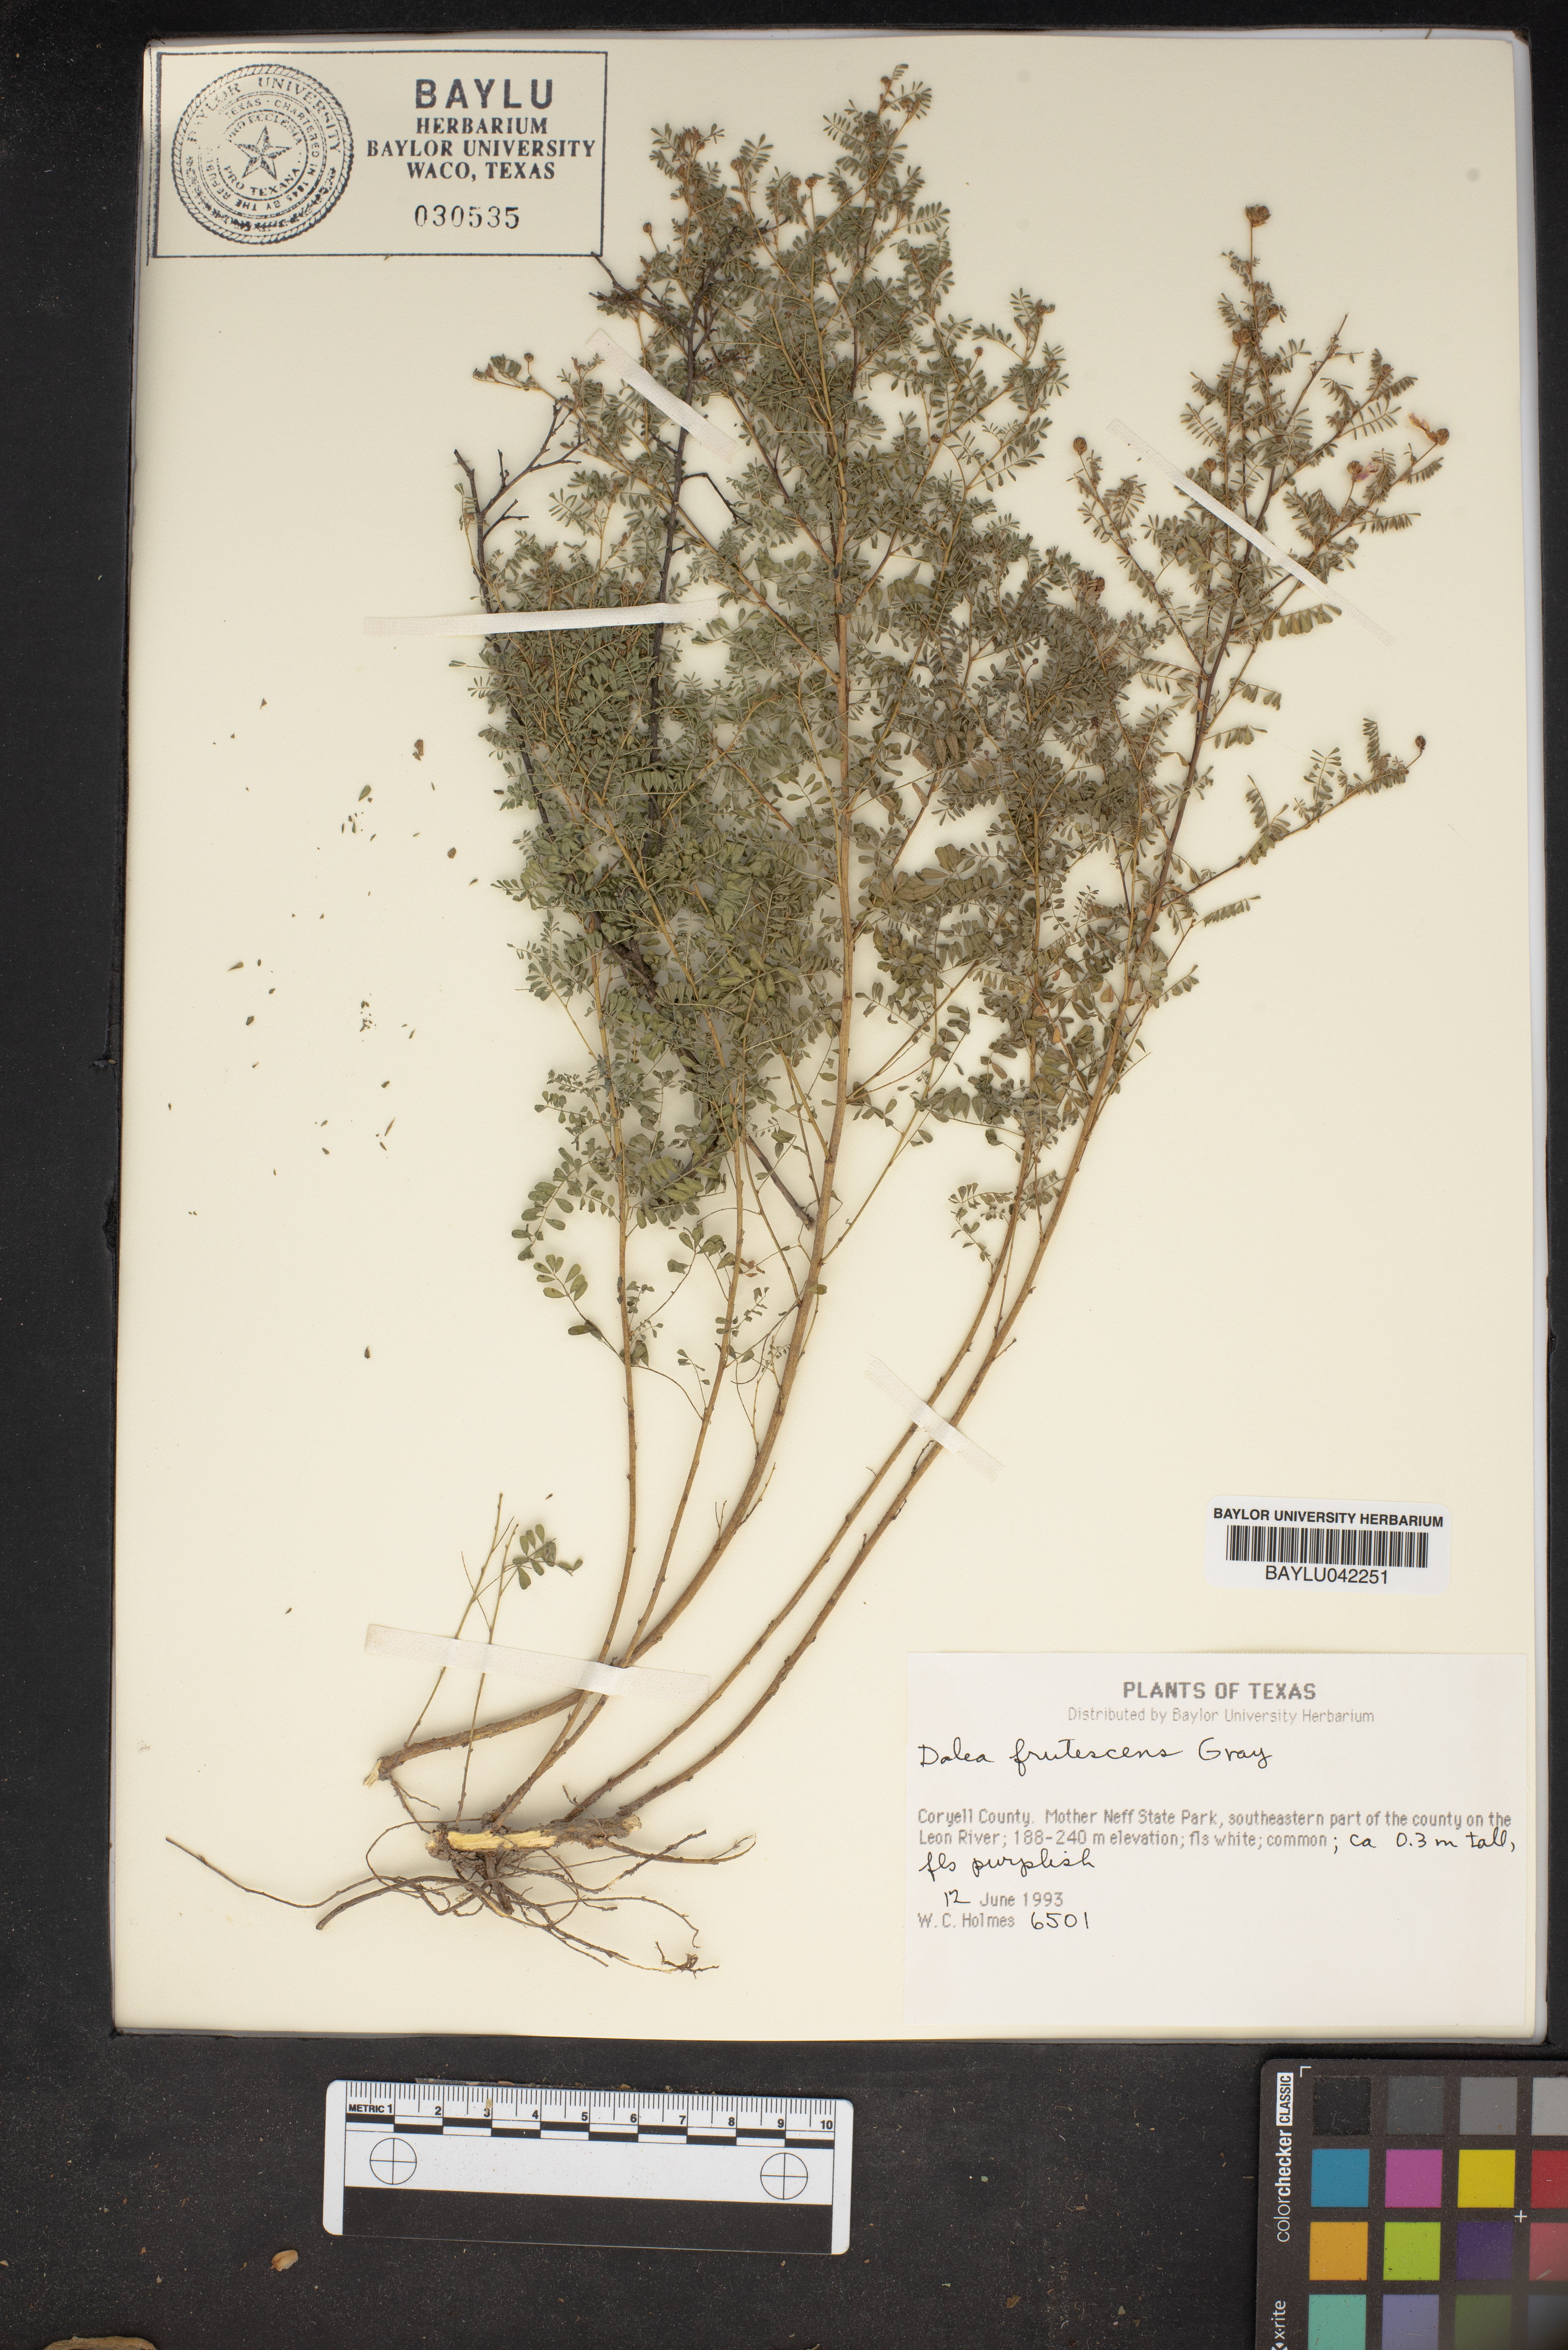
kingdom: Plantae
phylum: Tracheophyta
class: Magnoliopsida
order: Fabales
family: Fabaceae
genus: Dalea
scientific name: Dalea frutescens
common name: Black dalea
